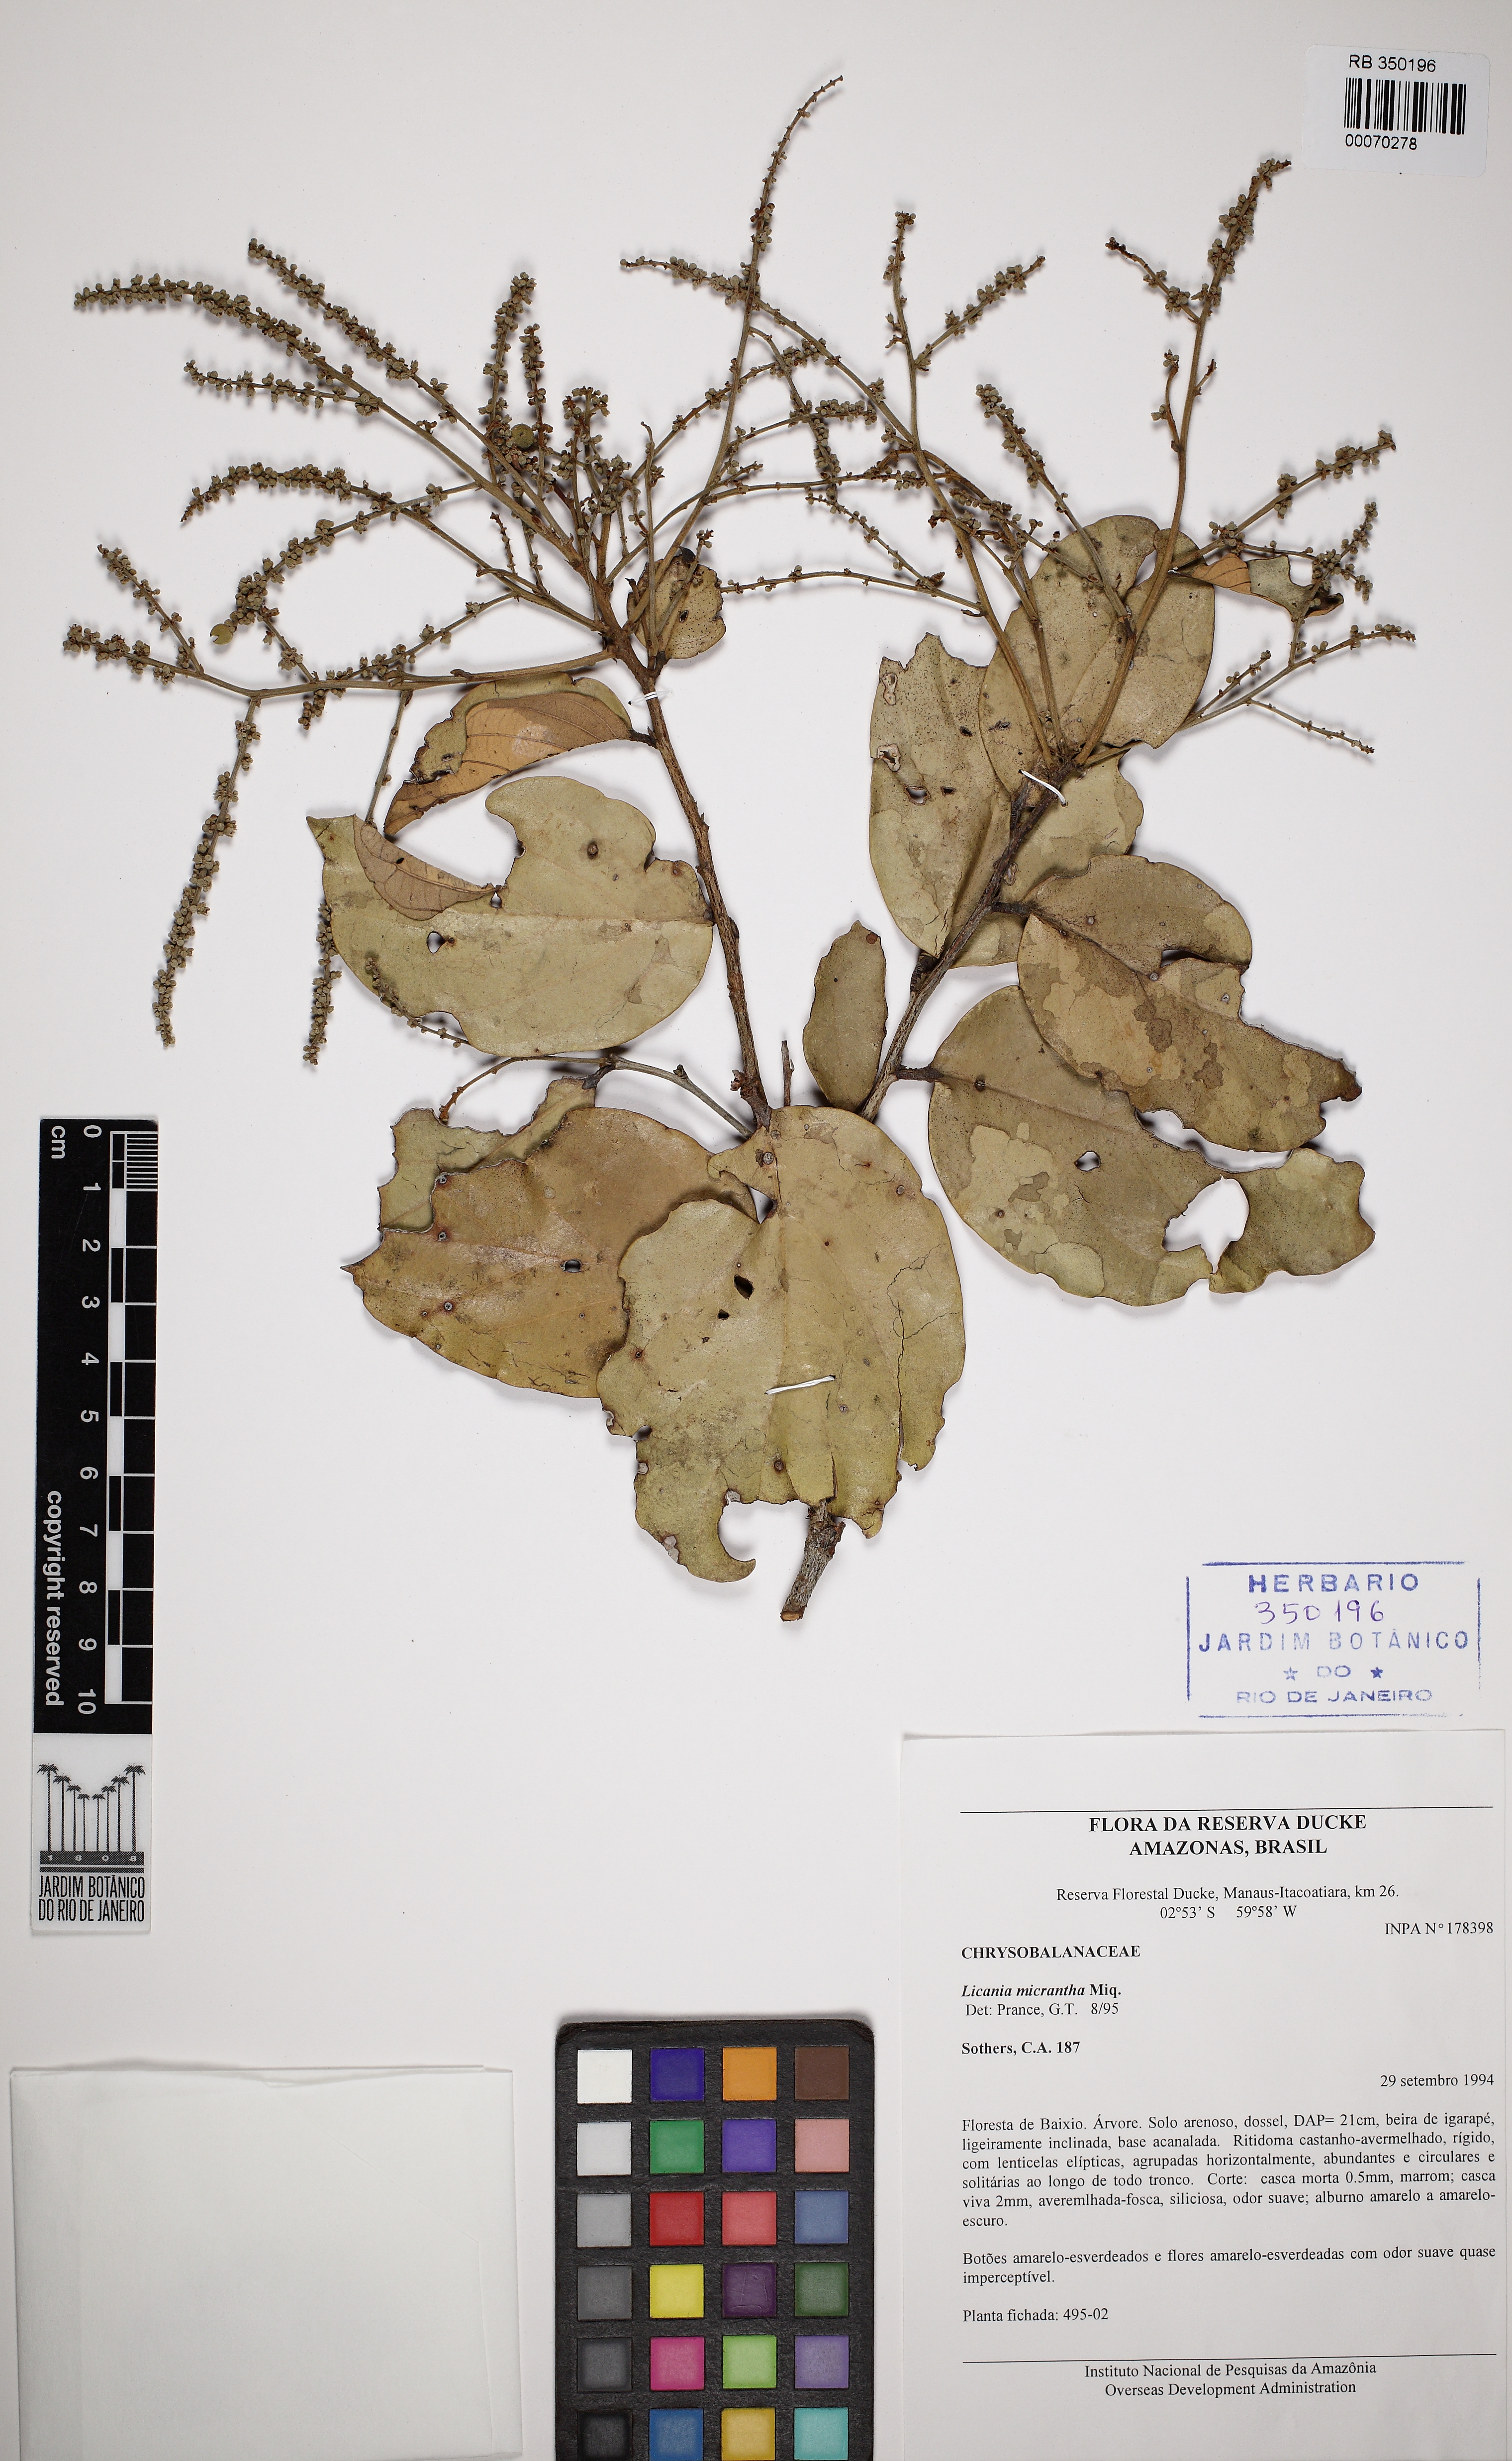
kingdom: Plantae
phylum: Tracheophyta
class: Magnoliopsida
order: Malpighiales
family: Chrysobalanaceae
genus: Licania
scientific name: Licania micrantha
